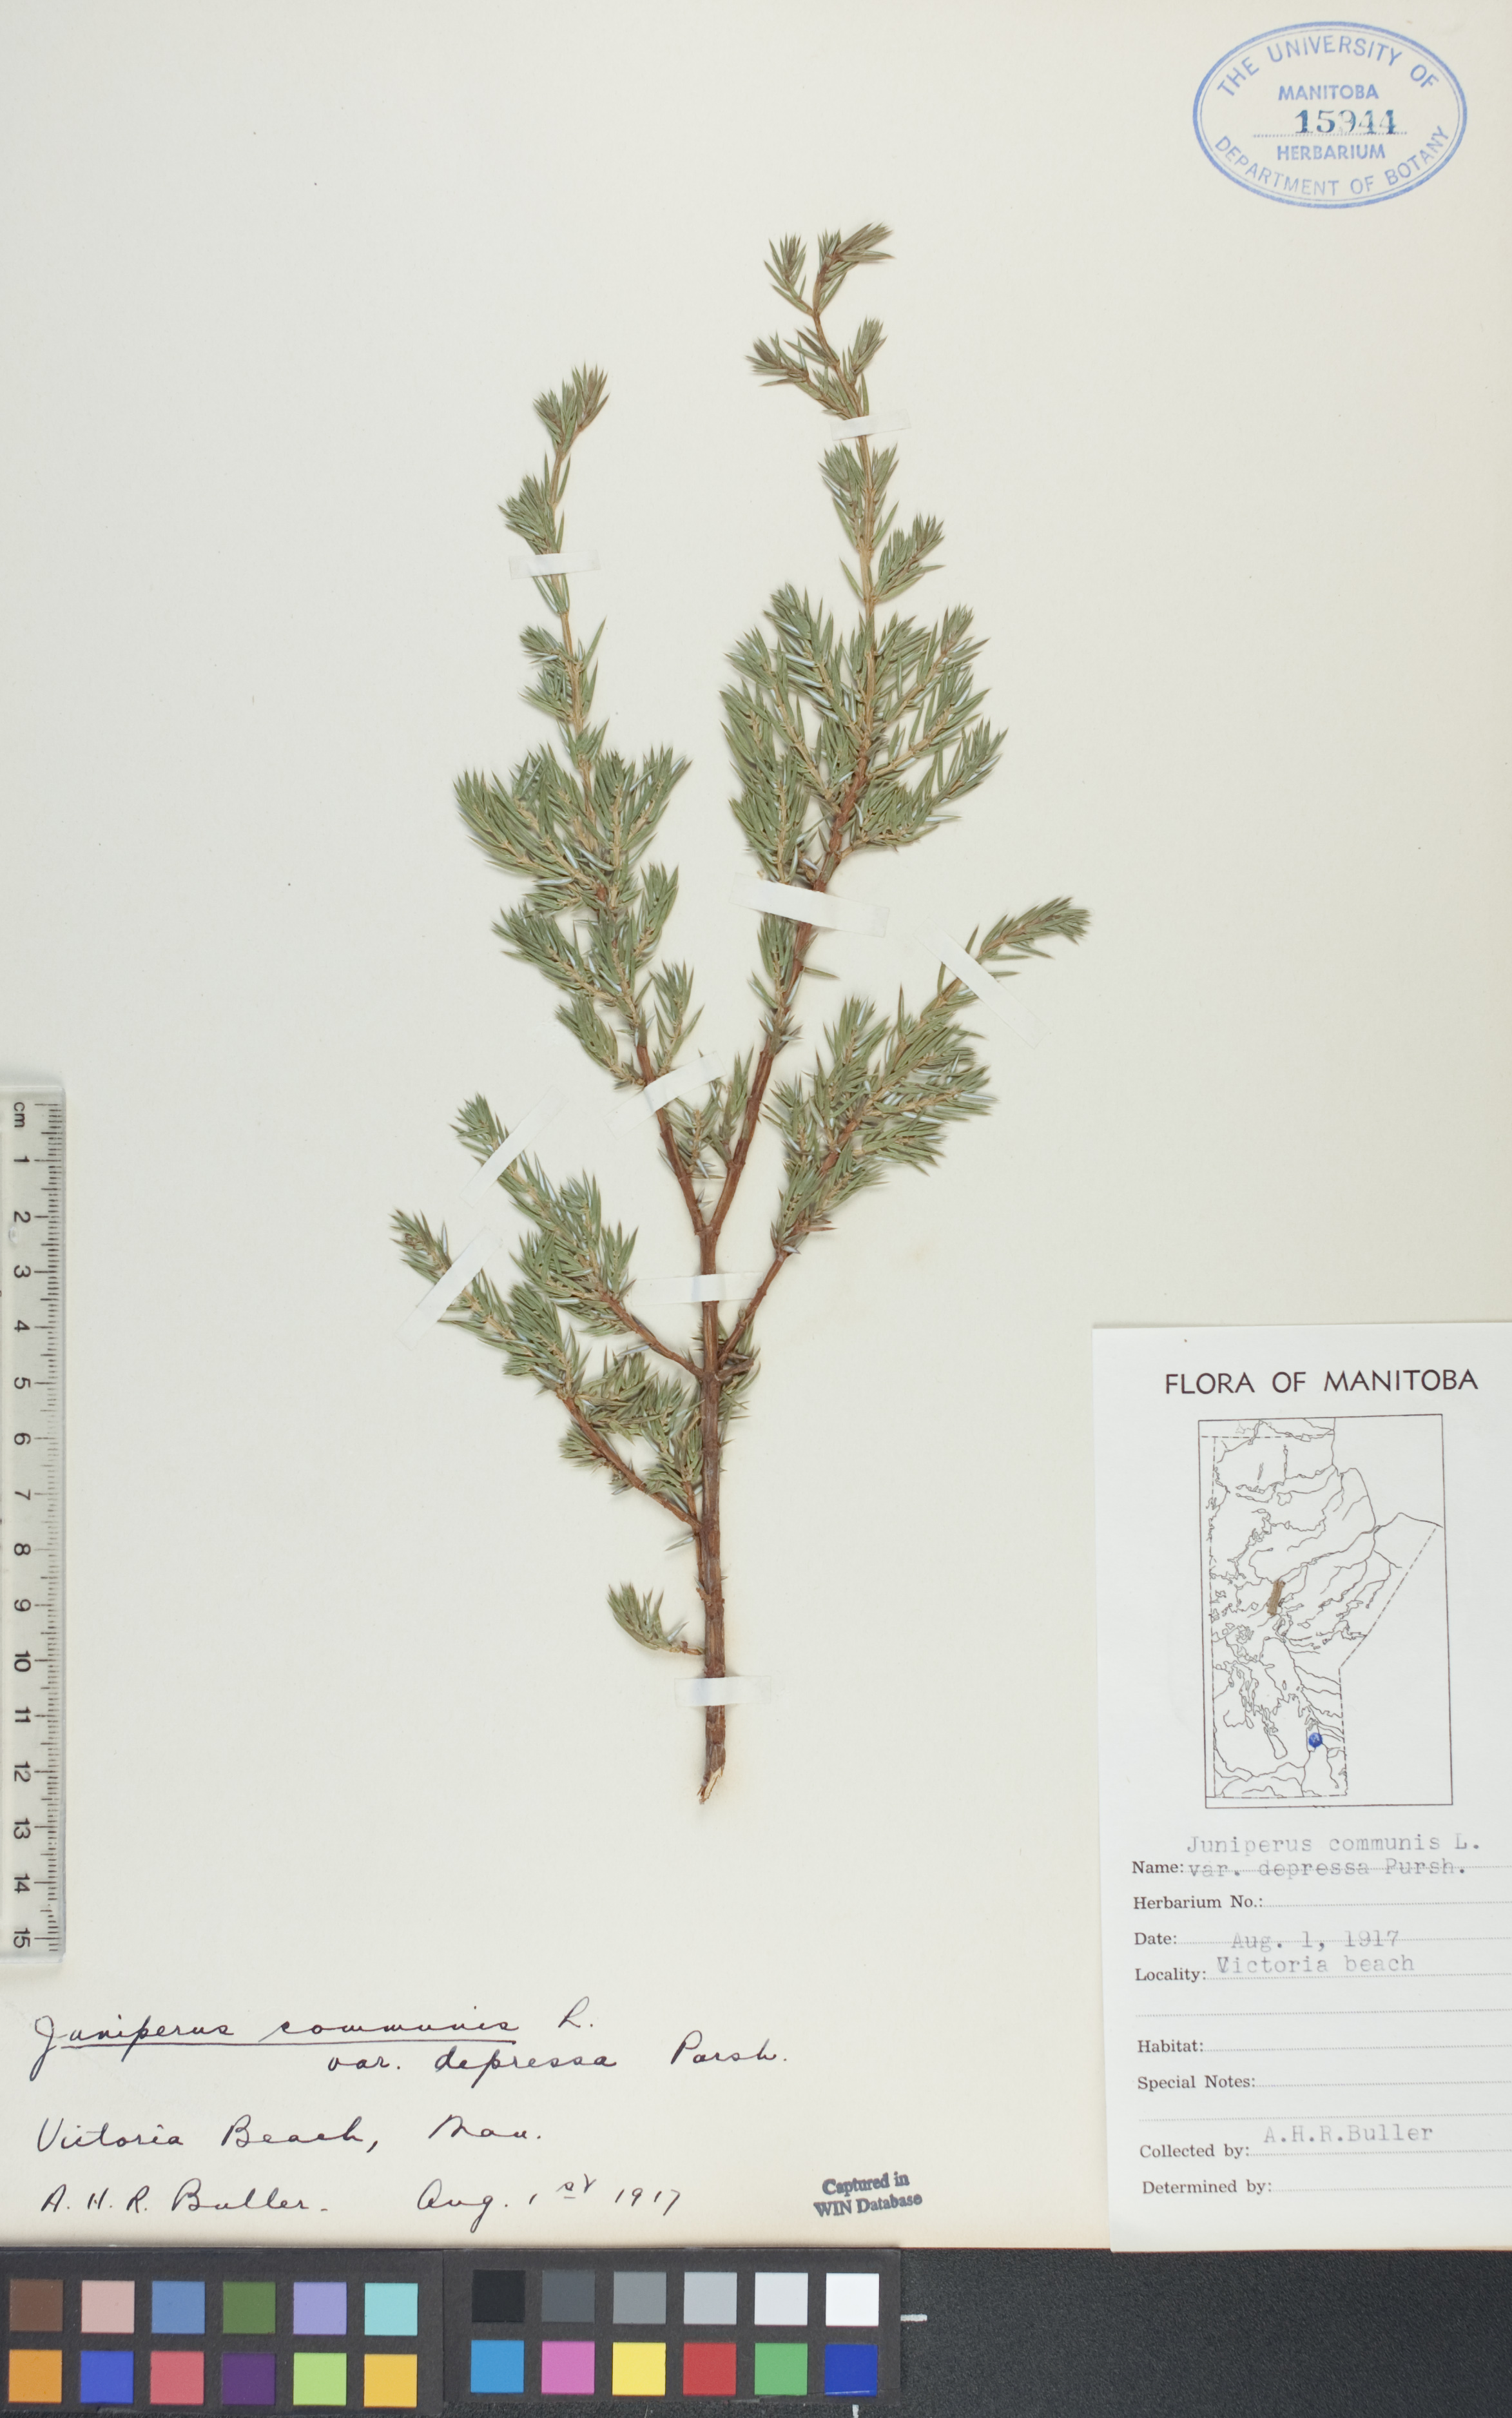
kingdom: Plantae
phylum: Tracheophyta
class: Pinopsida
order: Pinales
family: Cupressaceae
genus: Juniperus
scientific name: Juniperus communis
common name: Common juniper
